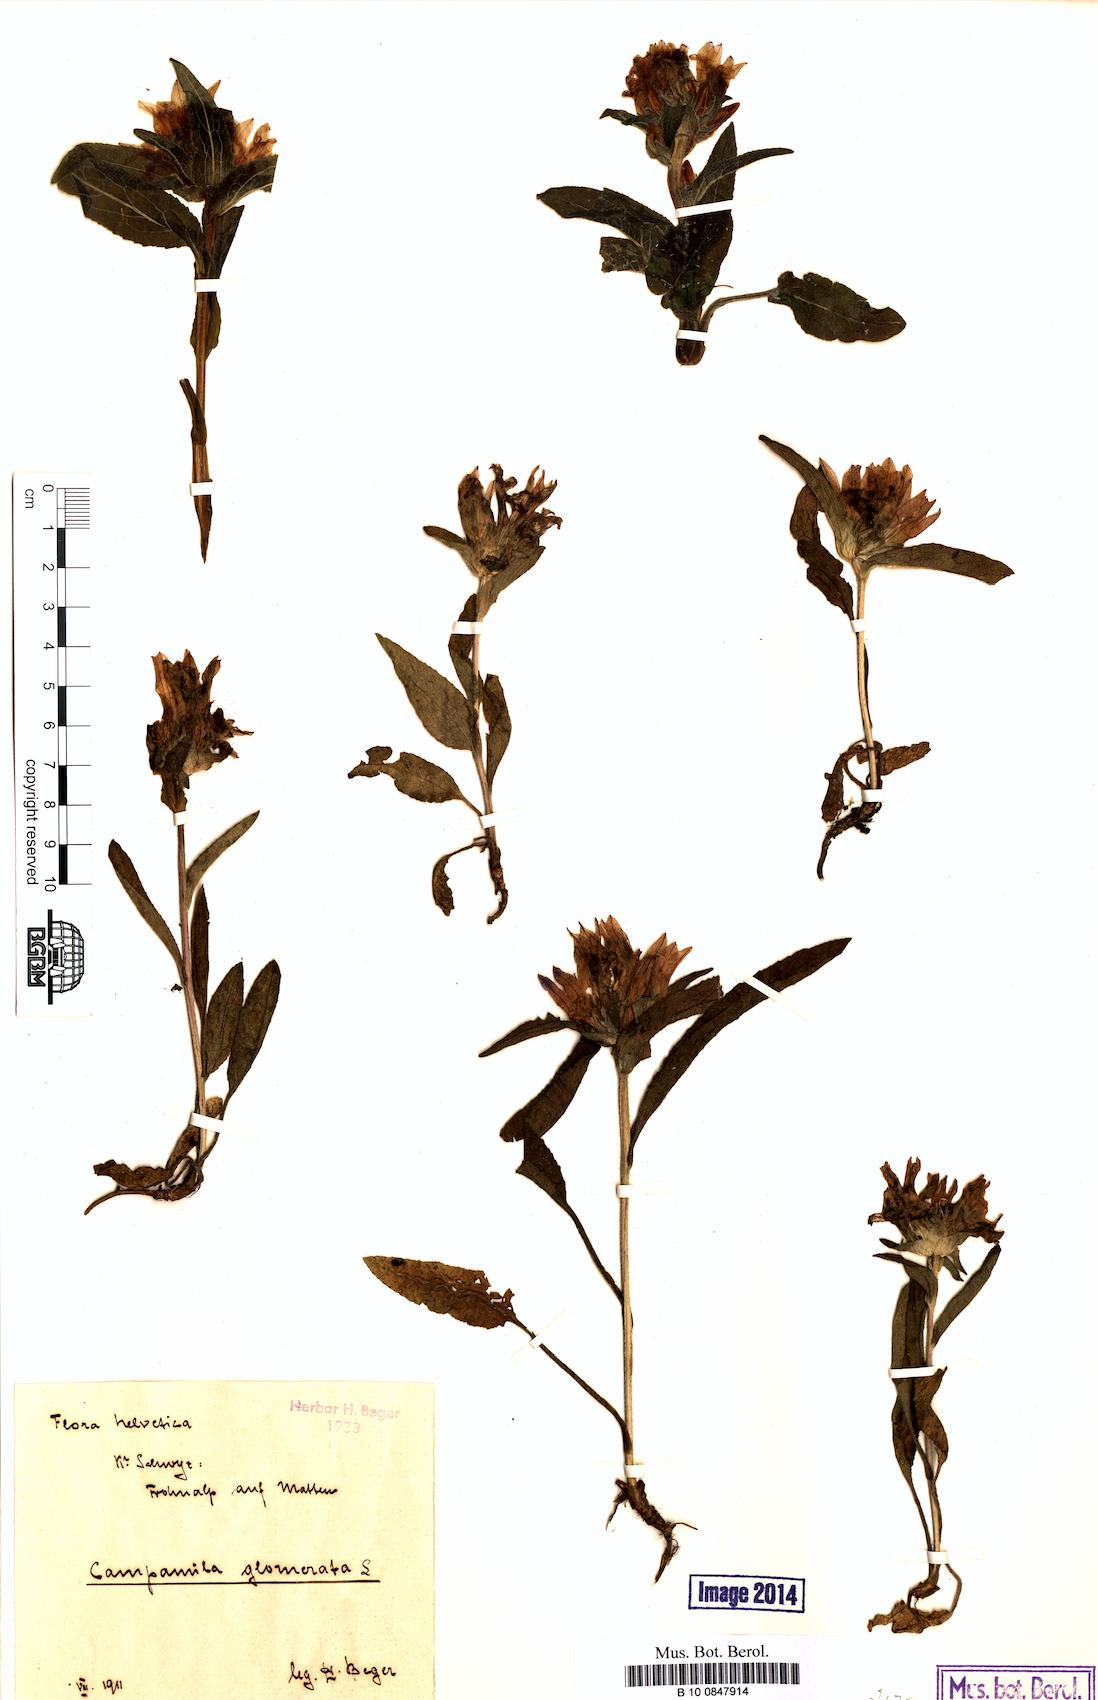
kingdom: Plantae
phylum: Tracheophyta
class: Magnoliopsida
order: Asterales
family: Campanulaceae
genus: Campanula
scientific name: Campanula glomerata
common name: Clustered bellflower
